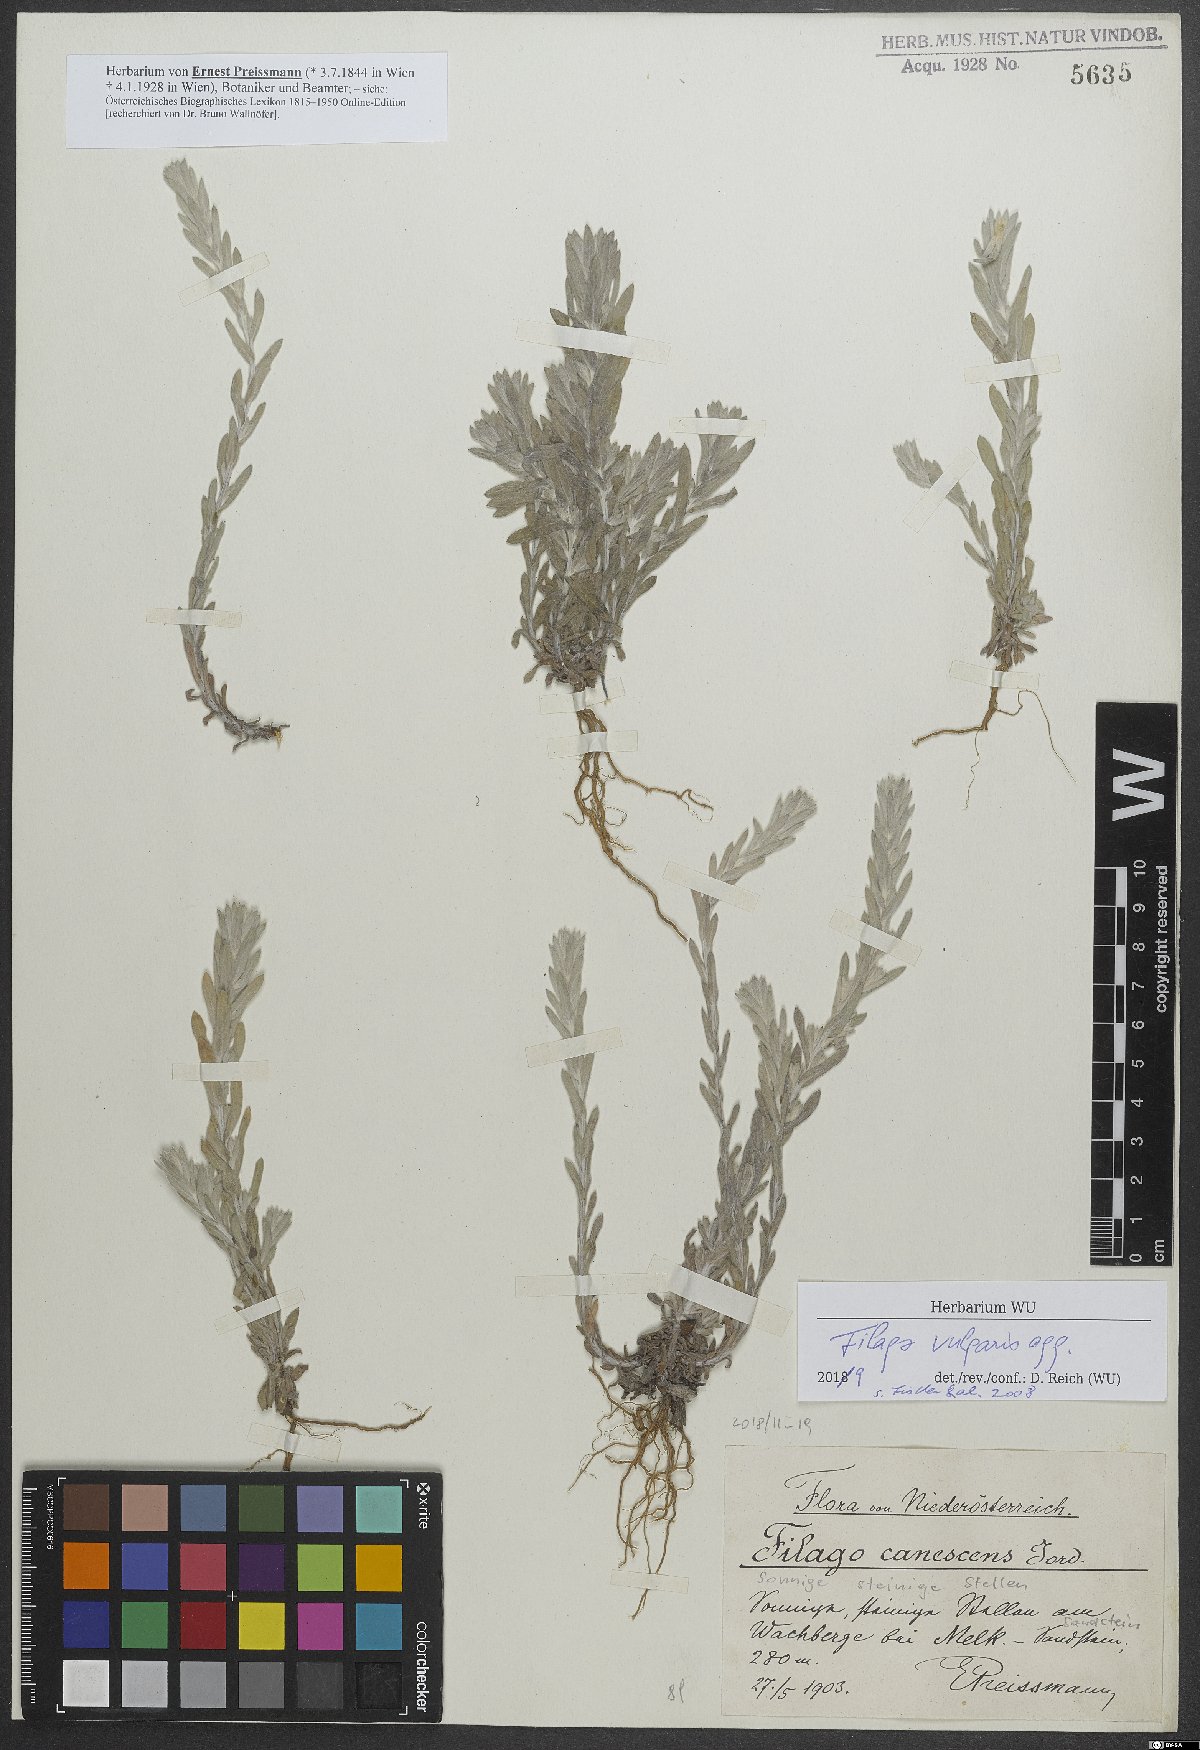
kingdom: Plantae
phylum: Tracheophyta
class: Magnoliopsida
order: Asterales
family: Asteraceae
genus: Filago
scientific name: Filago germanica
